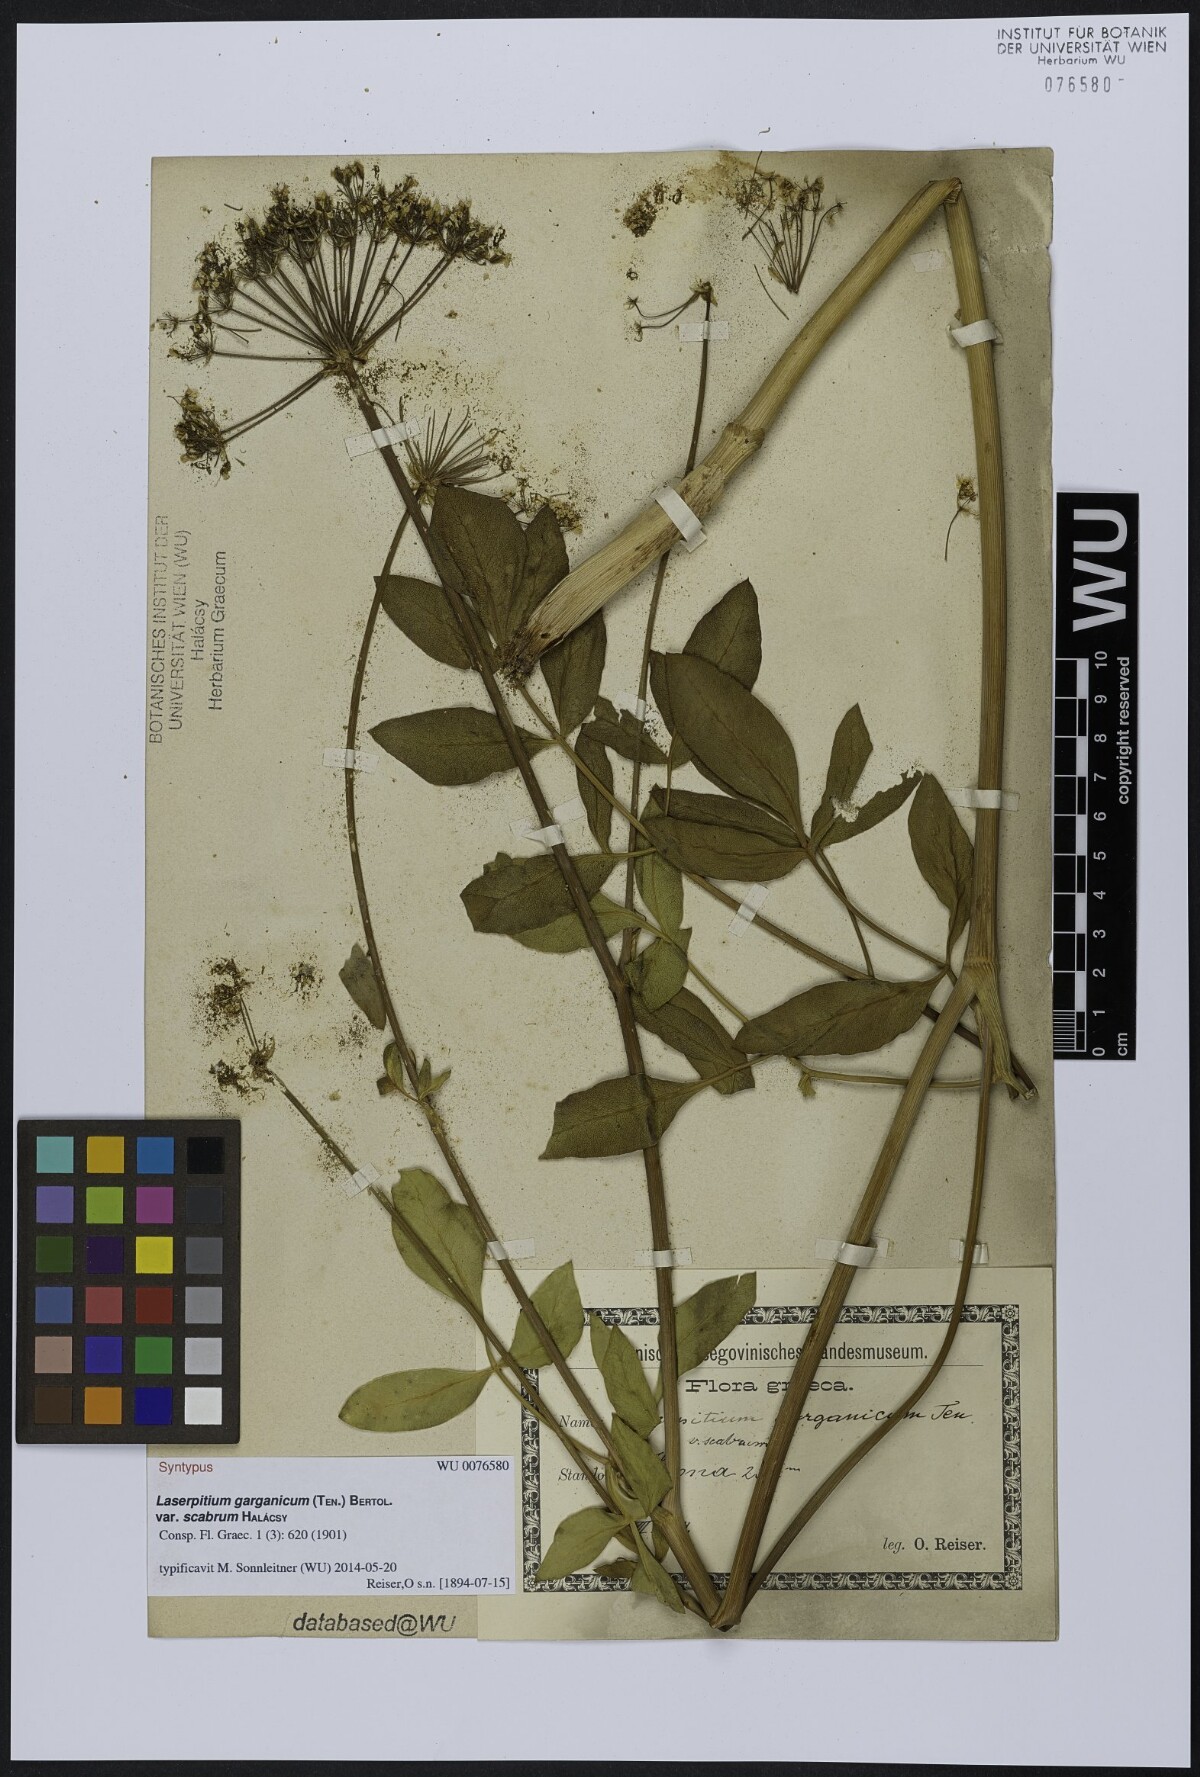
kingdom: Plantae
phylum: Tracheophyta
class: Magnoliopsida
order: Apiales
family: Apiaceae
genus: Siler
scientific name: Siler zernyi
